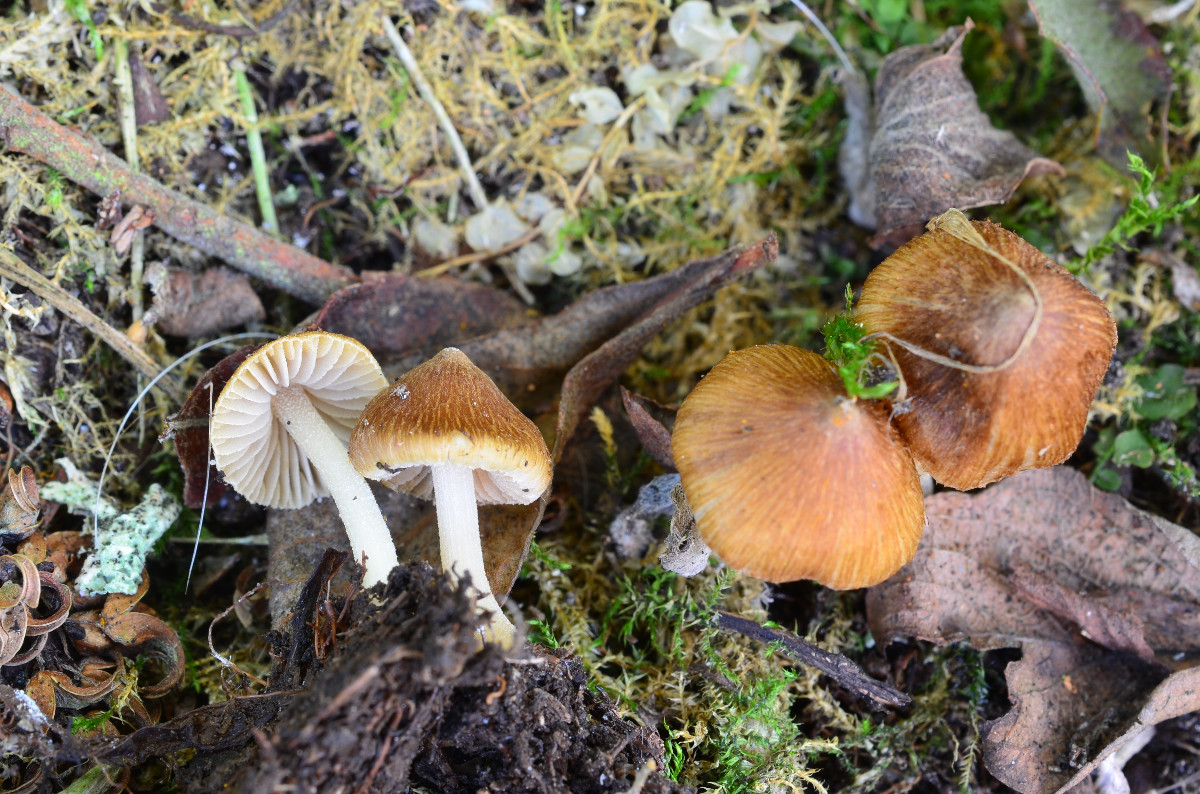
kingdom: Fungi
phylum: Basidiomycota
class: Agaricomycetes
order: Agaricales
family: Inocybaceae
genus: Inocybe
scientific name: Inocybe salicis
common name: pile-trævlhat
